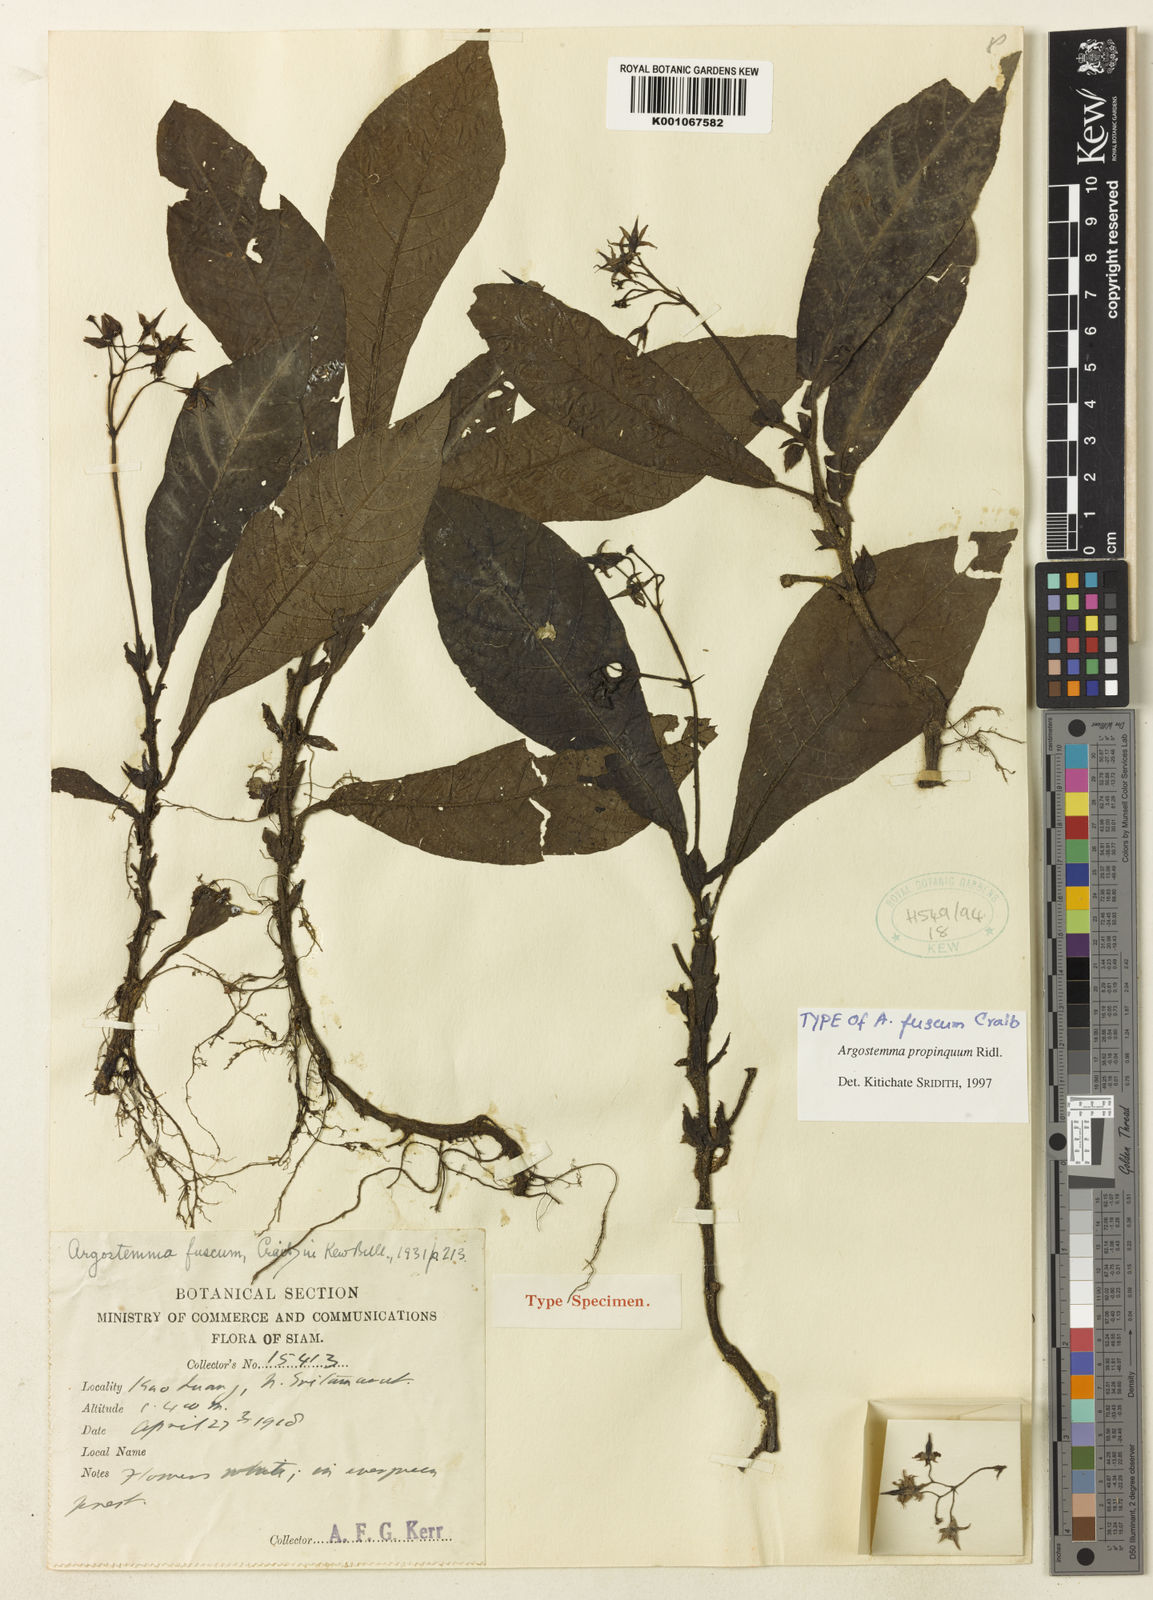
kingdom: Plantae
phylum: Tracheophyta
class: Magnoliopsida
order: Gentianales
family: Rubiaceae
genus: Argostemma
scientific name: Argostemma propinquum
